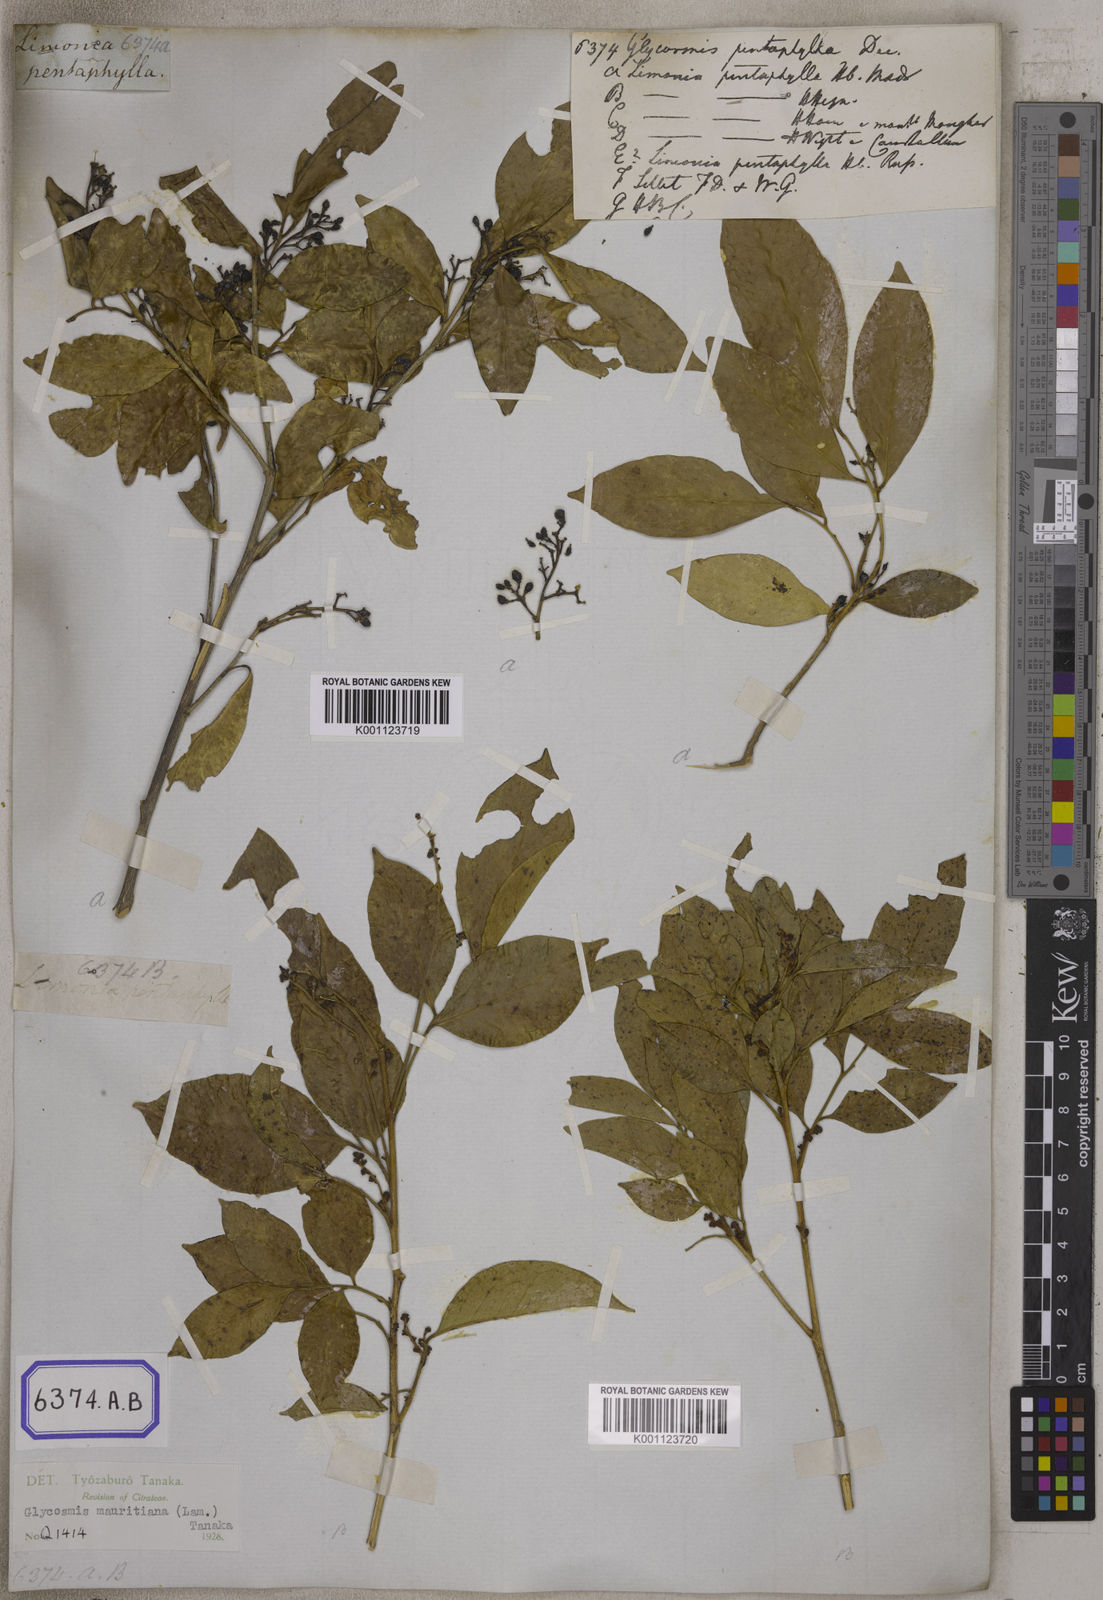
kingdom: Plantae
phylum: Tracheophyta
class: Magnoliopsida
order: Sapindales
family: Rutaceae
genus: Glycosmis
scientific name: Glycosmis pentaphylla
